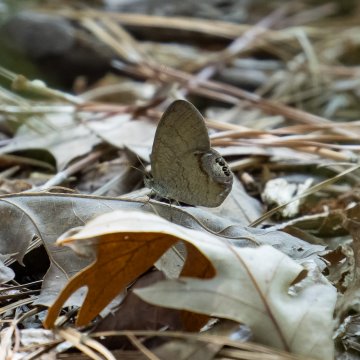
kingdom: Animalia
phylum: Arthropoda
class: Insecta
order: Lepidoptera
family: Nymphalidae
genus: Euptychia
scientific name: Euptychia cornelius
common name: Gemmed Satyr
